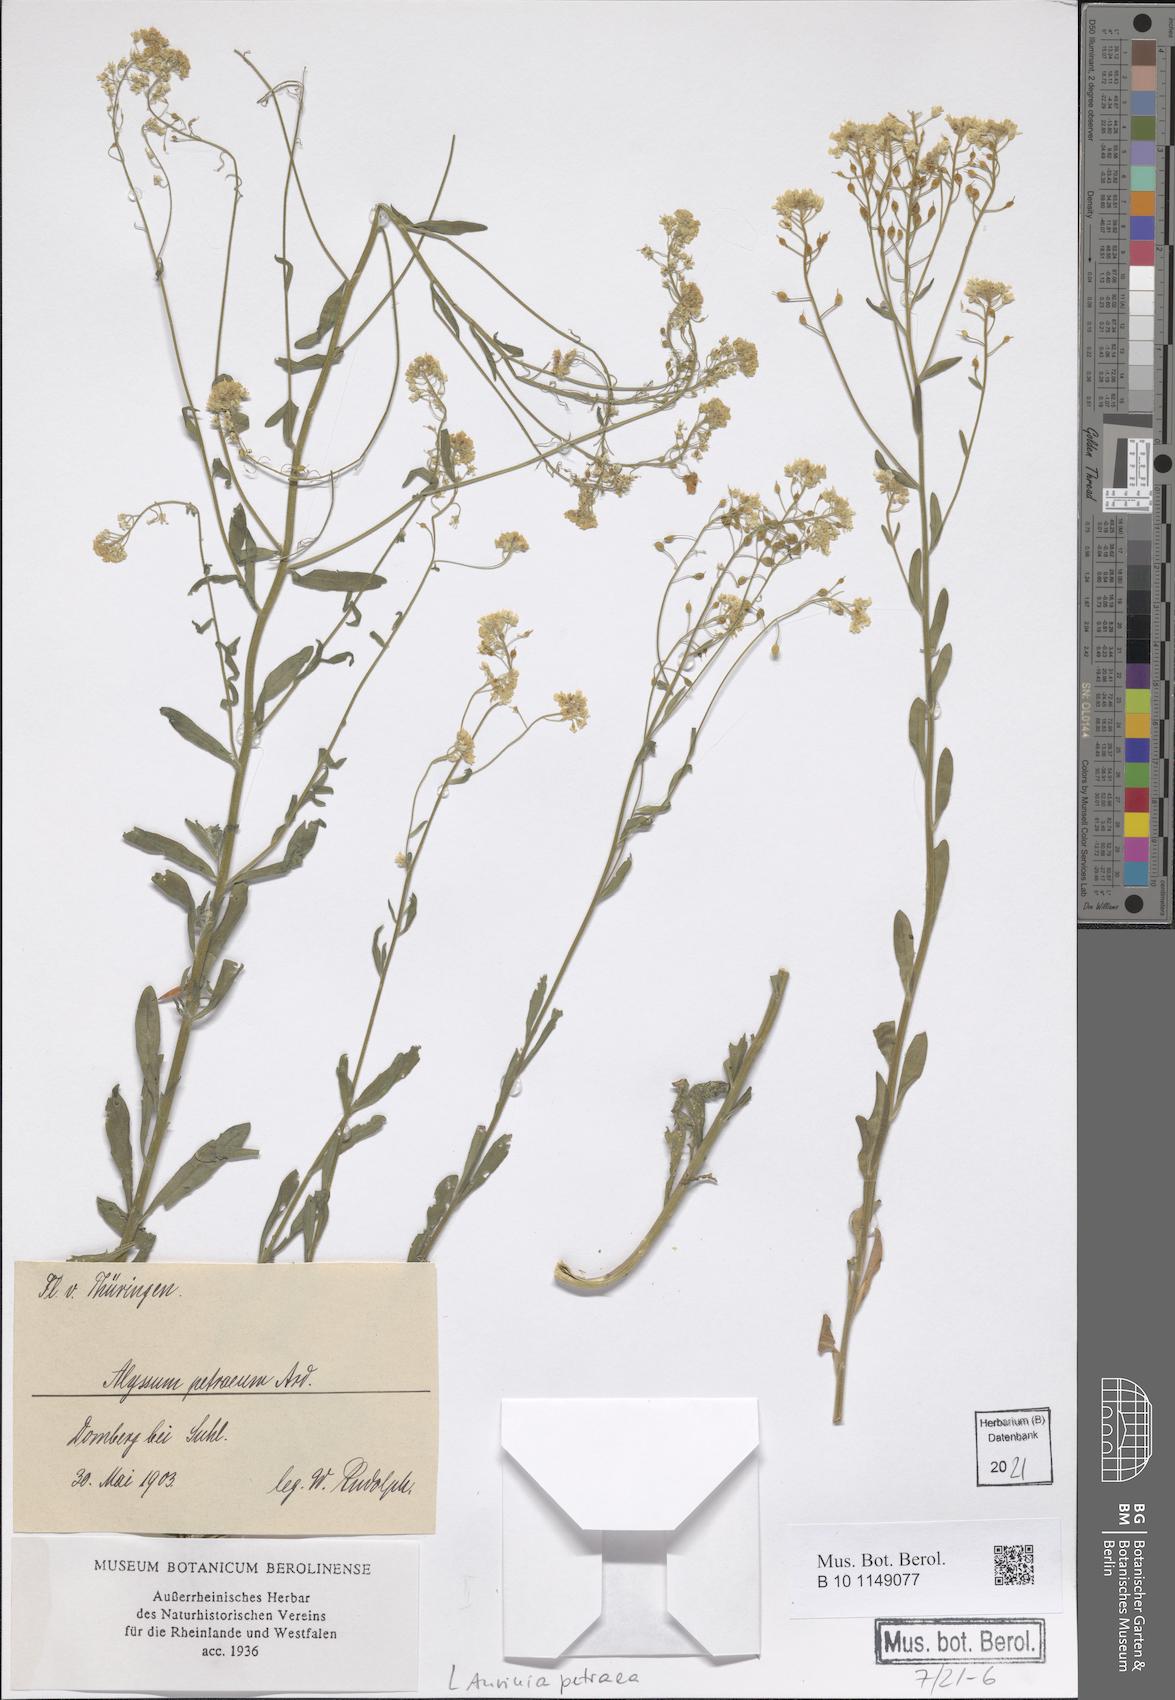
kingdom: Plantae
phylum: Tracheophyta
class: Magnoliopsida
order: Brassicales
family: Brassicaceae
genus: Aurinia
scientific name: Aurinia petraea
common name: Goldentuft
